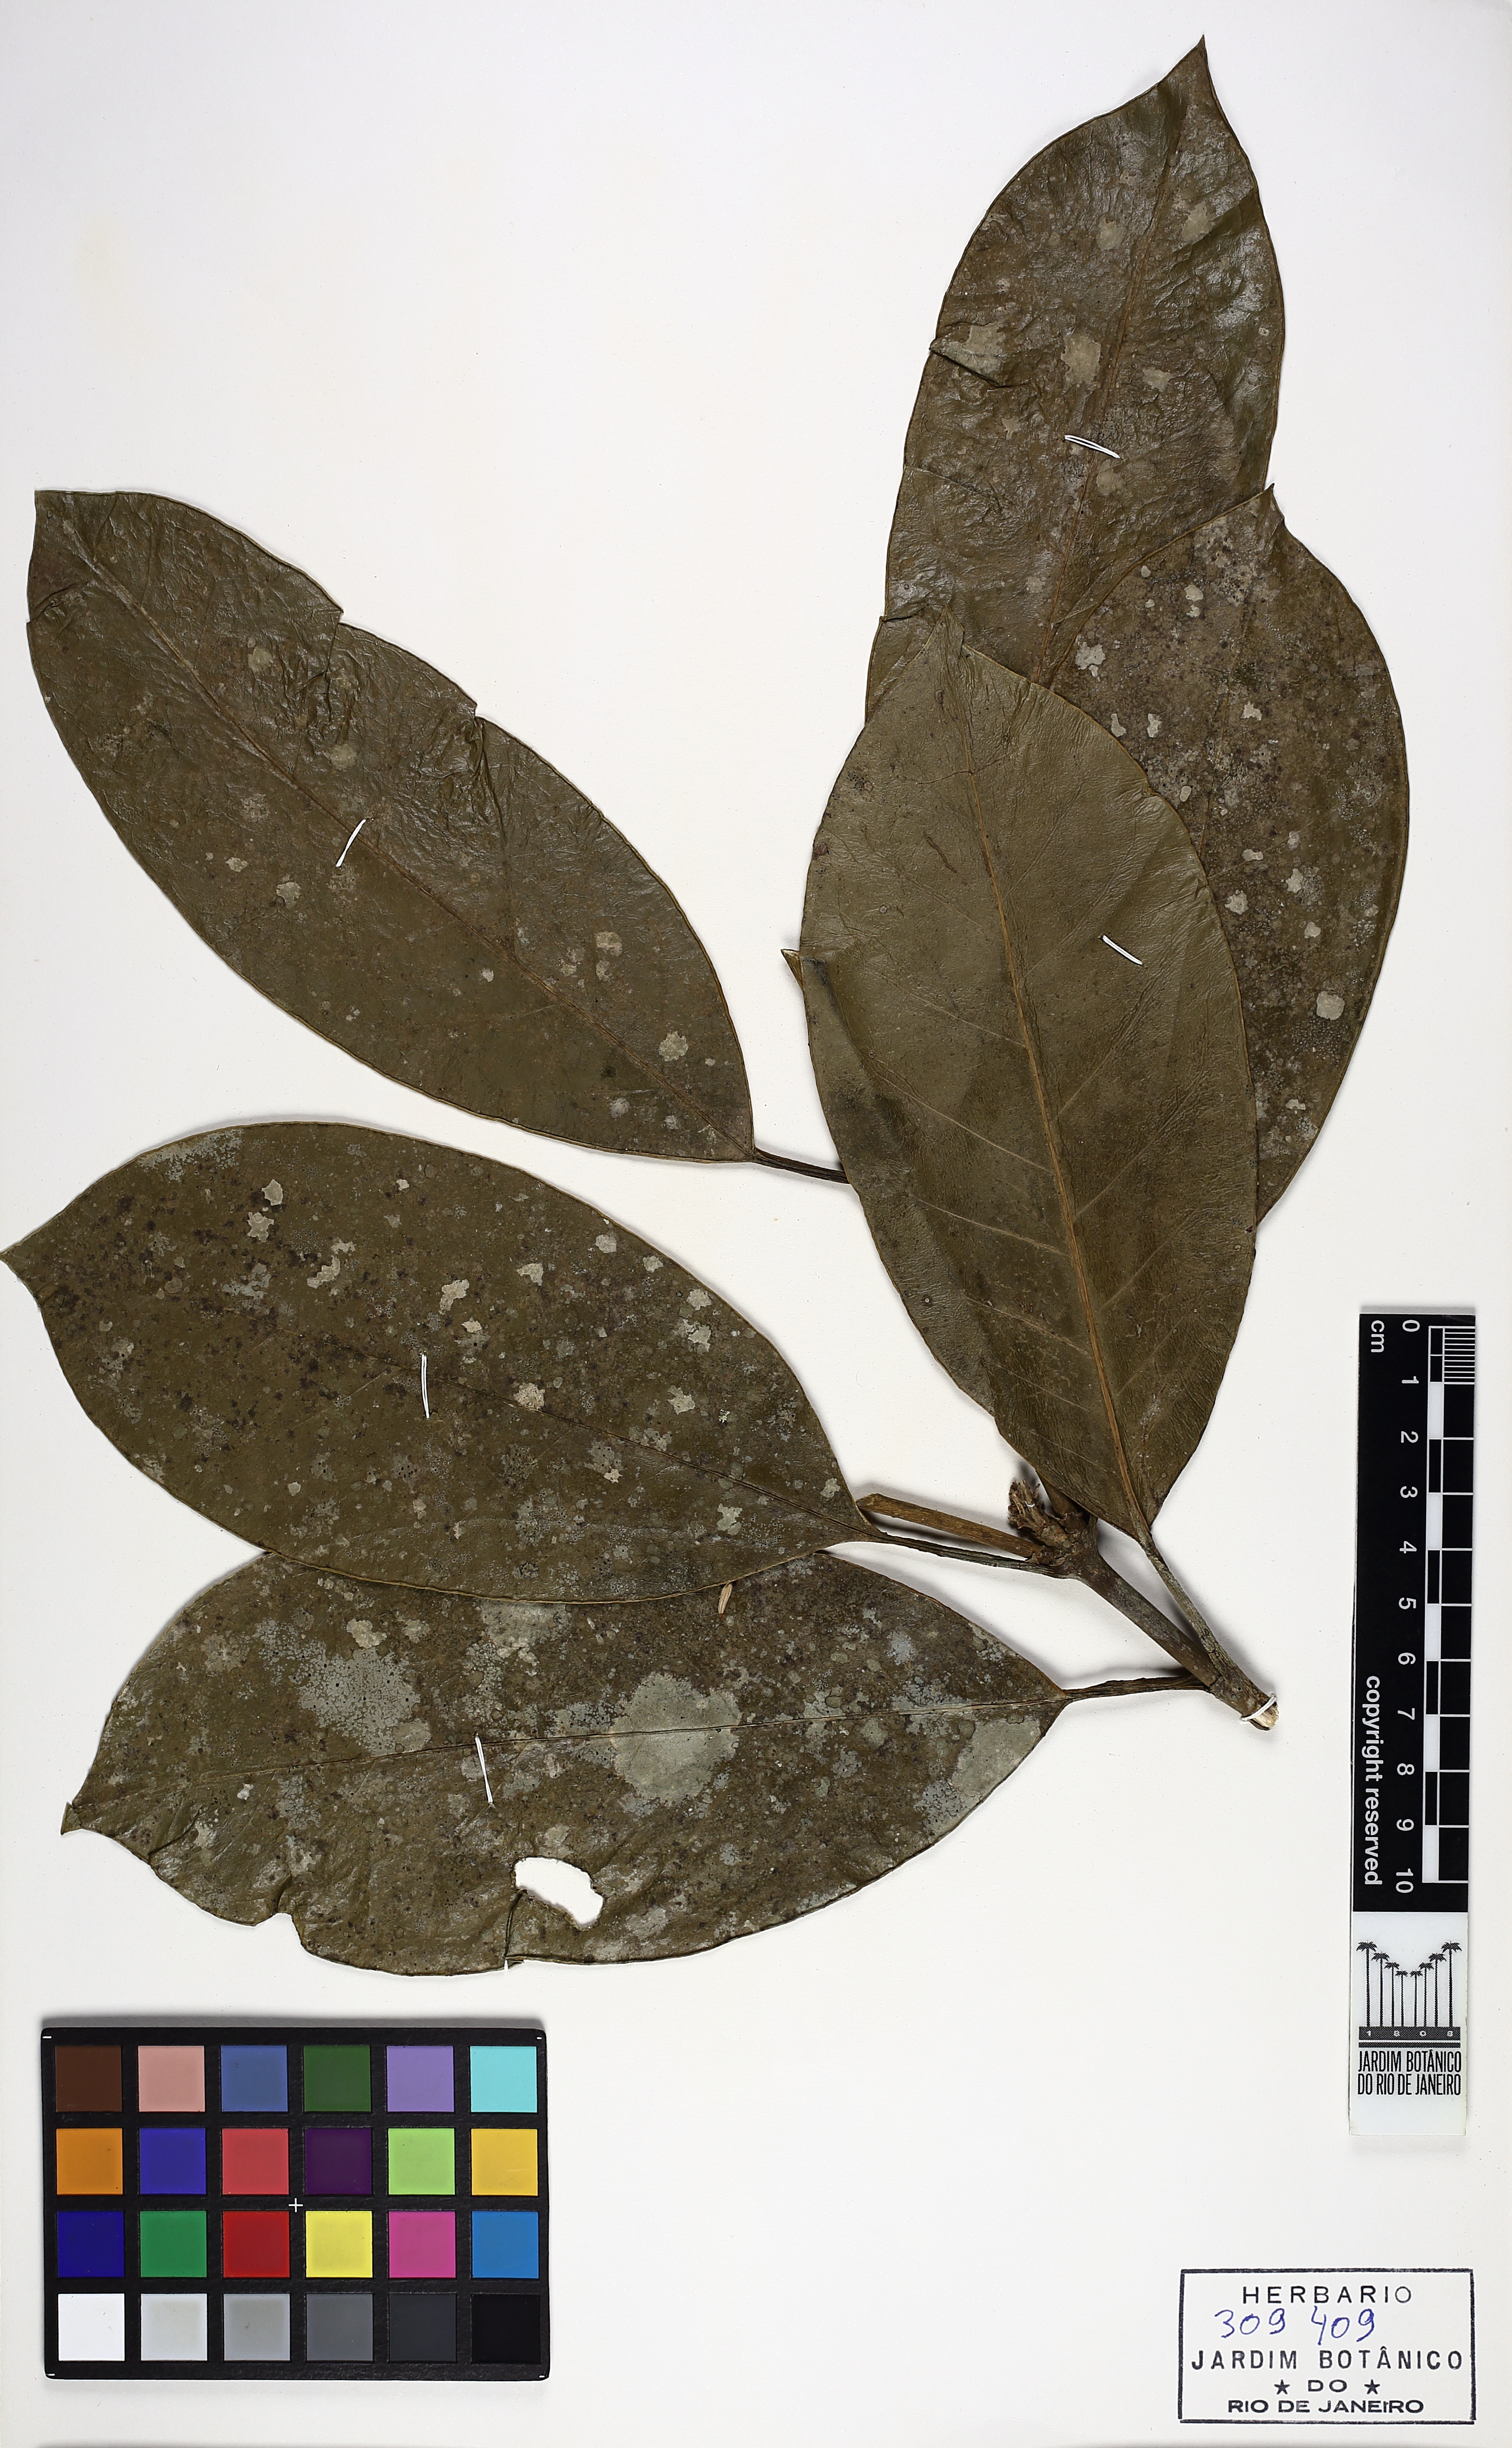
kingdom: Plantae
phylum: Tracheophyta
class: Magnoliopsida
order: Gentianales
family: Rubiaceae
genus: Posoqueria
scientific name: Posoqueria latifolia
